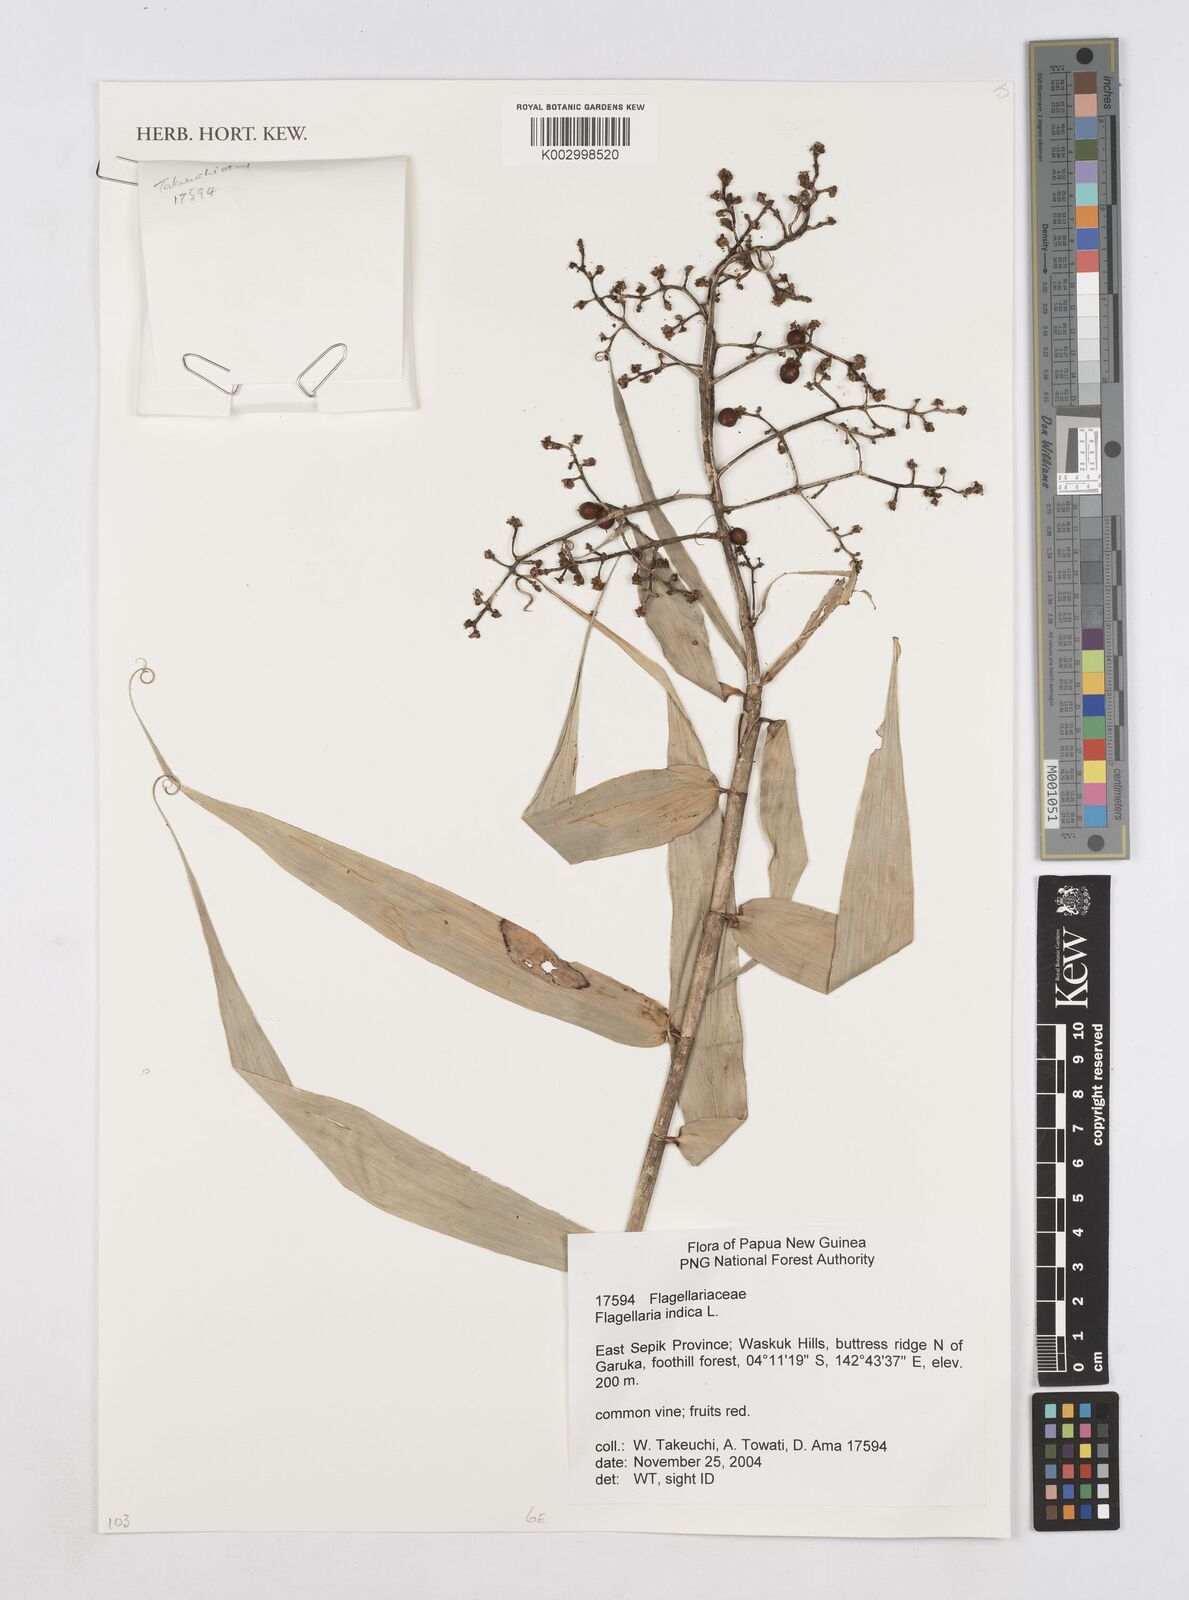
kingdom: Plantae
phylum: Tracheophyta
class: Liliopsida
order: Poales
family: Flagellariaceae
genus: Flagellaria
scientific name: Flagellaria indica
